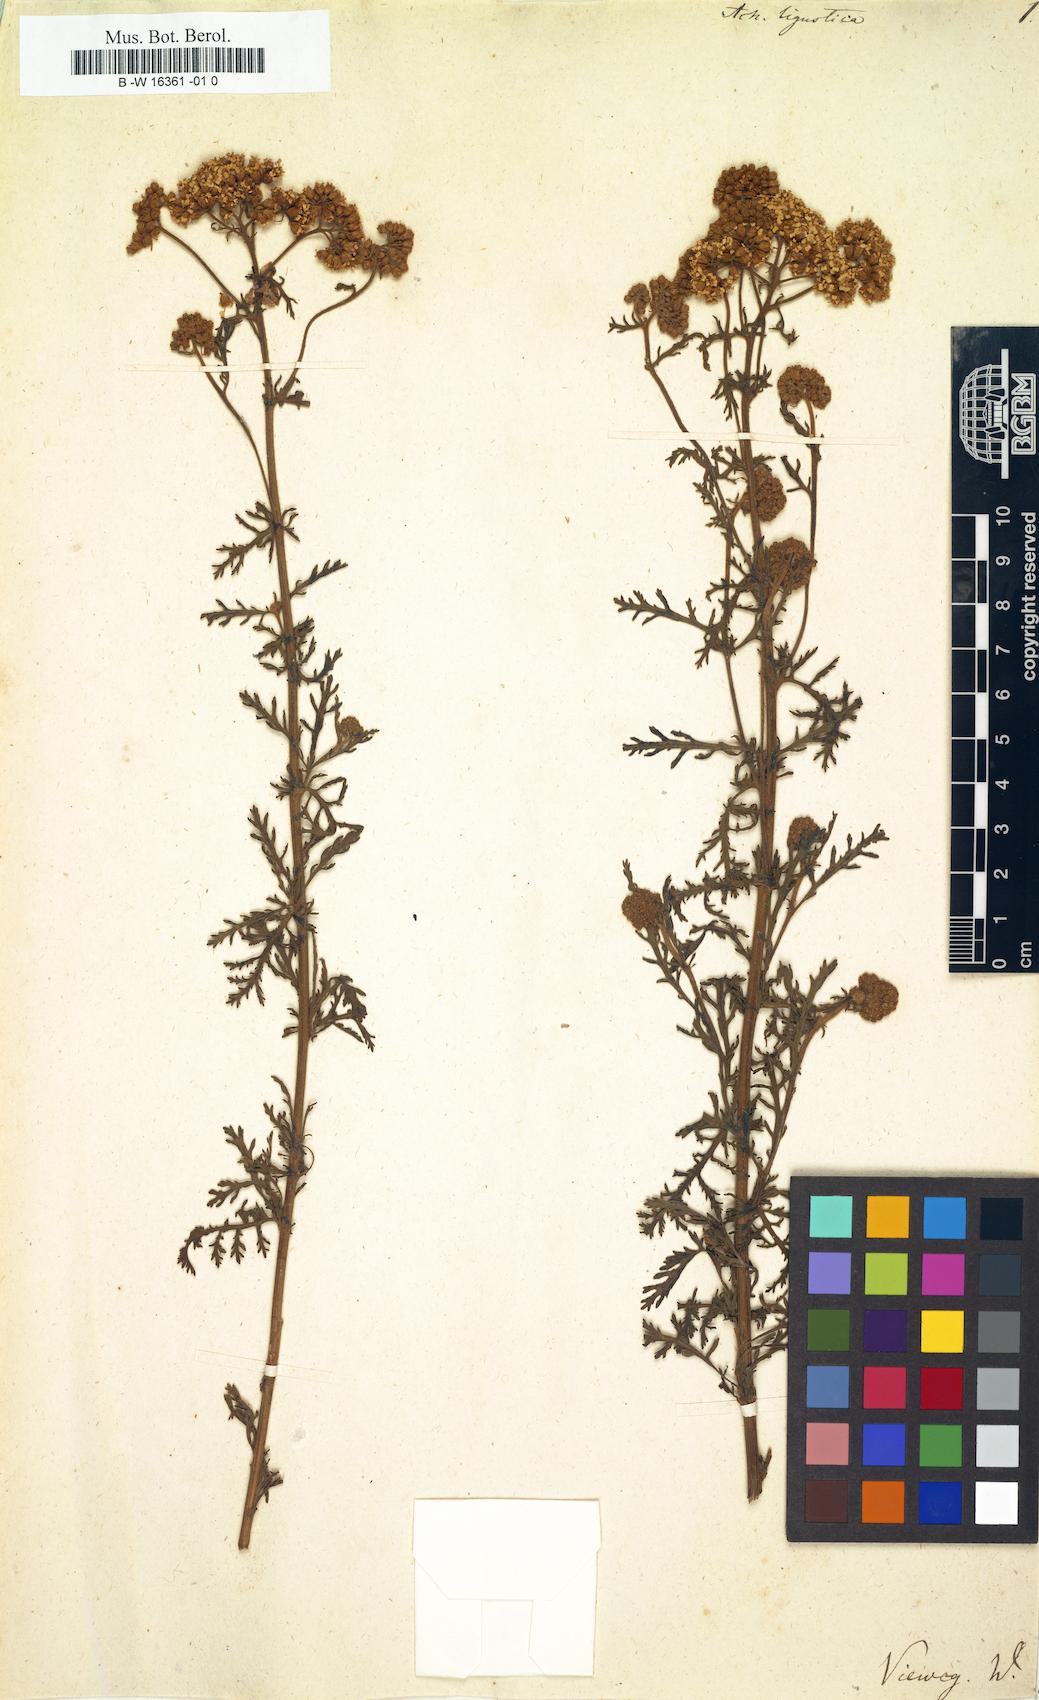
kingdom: Plantae
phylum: Tracheophyta
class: Magnoliopsida
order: Asterales
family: Asteraceae
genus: Achillea
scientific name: Achillea ligustica
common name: Southern yarrow
